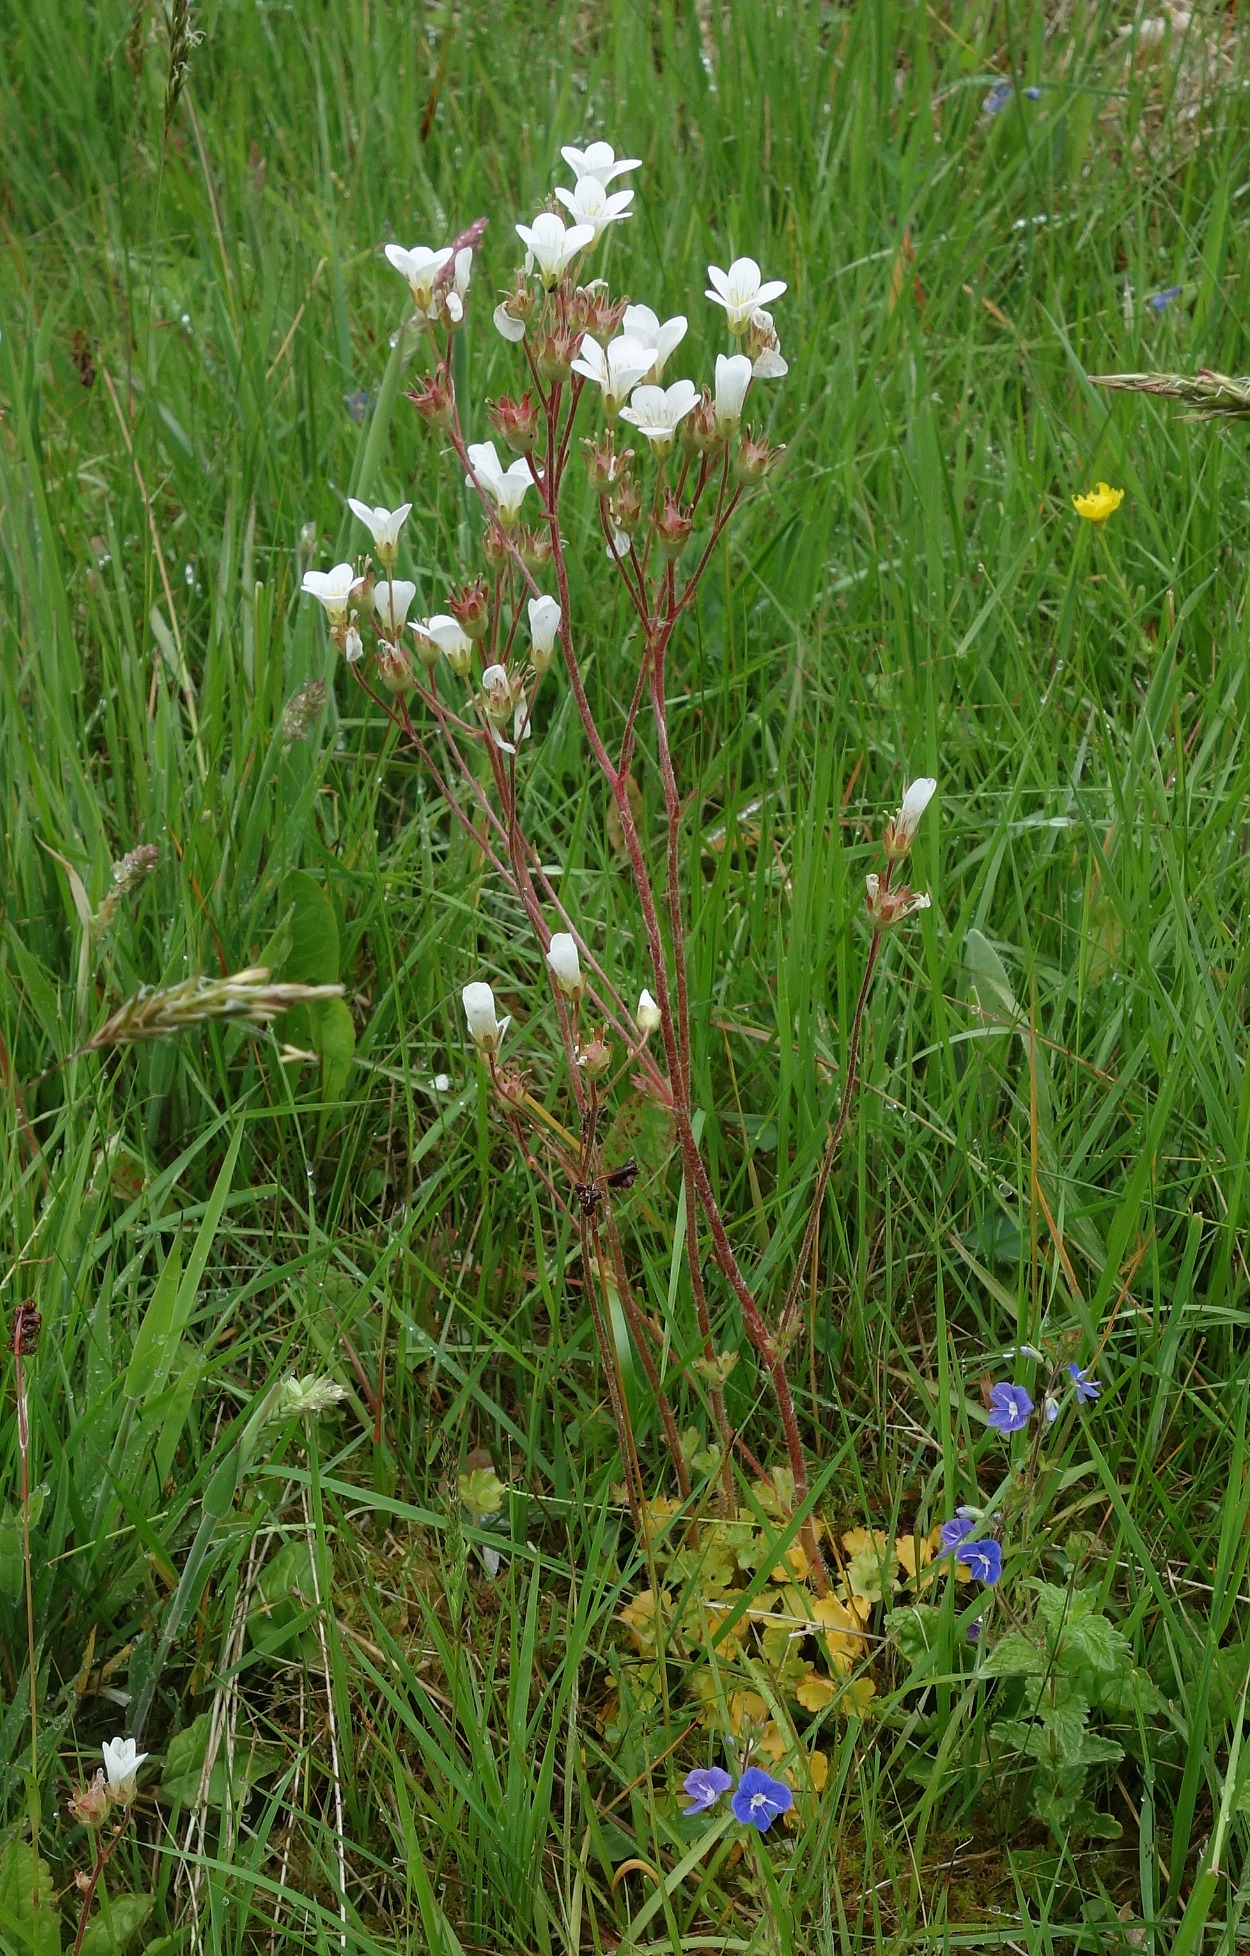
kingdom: Plantae
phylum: Tracheophyta
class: Magnoliopsida
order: Saxifragales
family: Saxifragaceae
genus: Saxifraga
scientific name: Saxifraga granulata
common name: Kornet stenbræk
